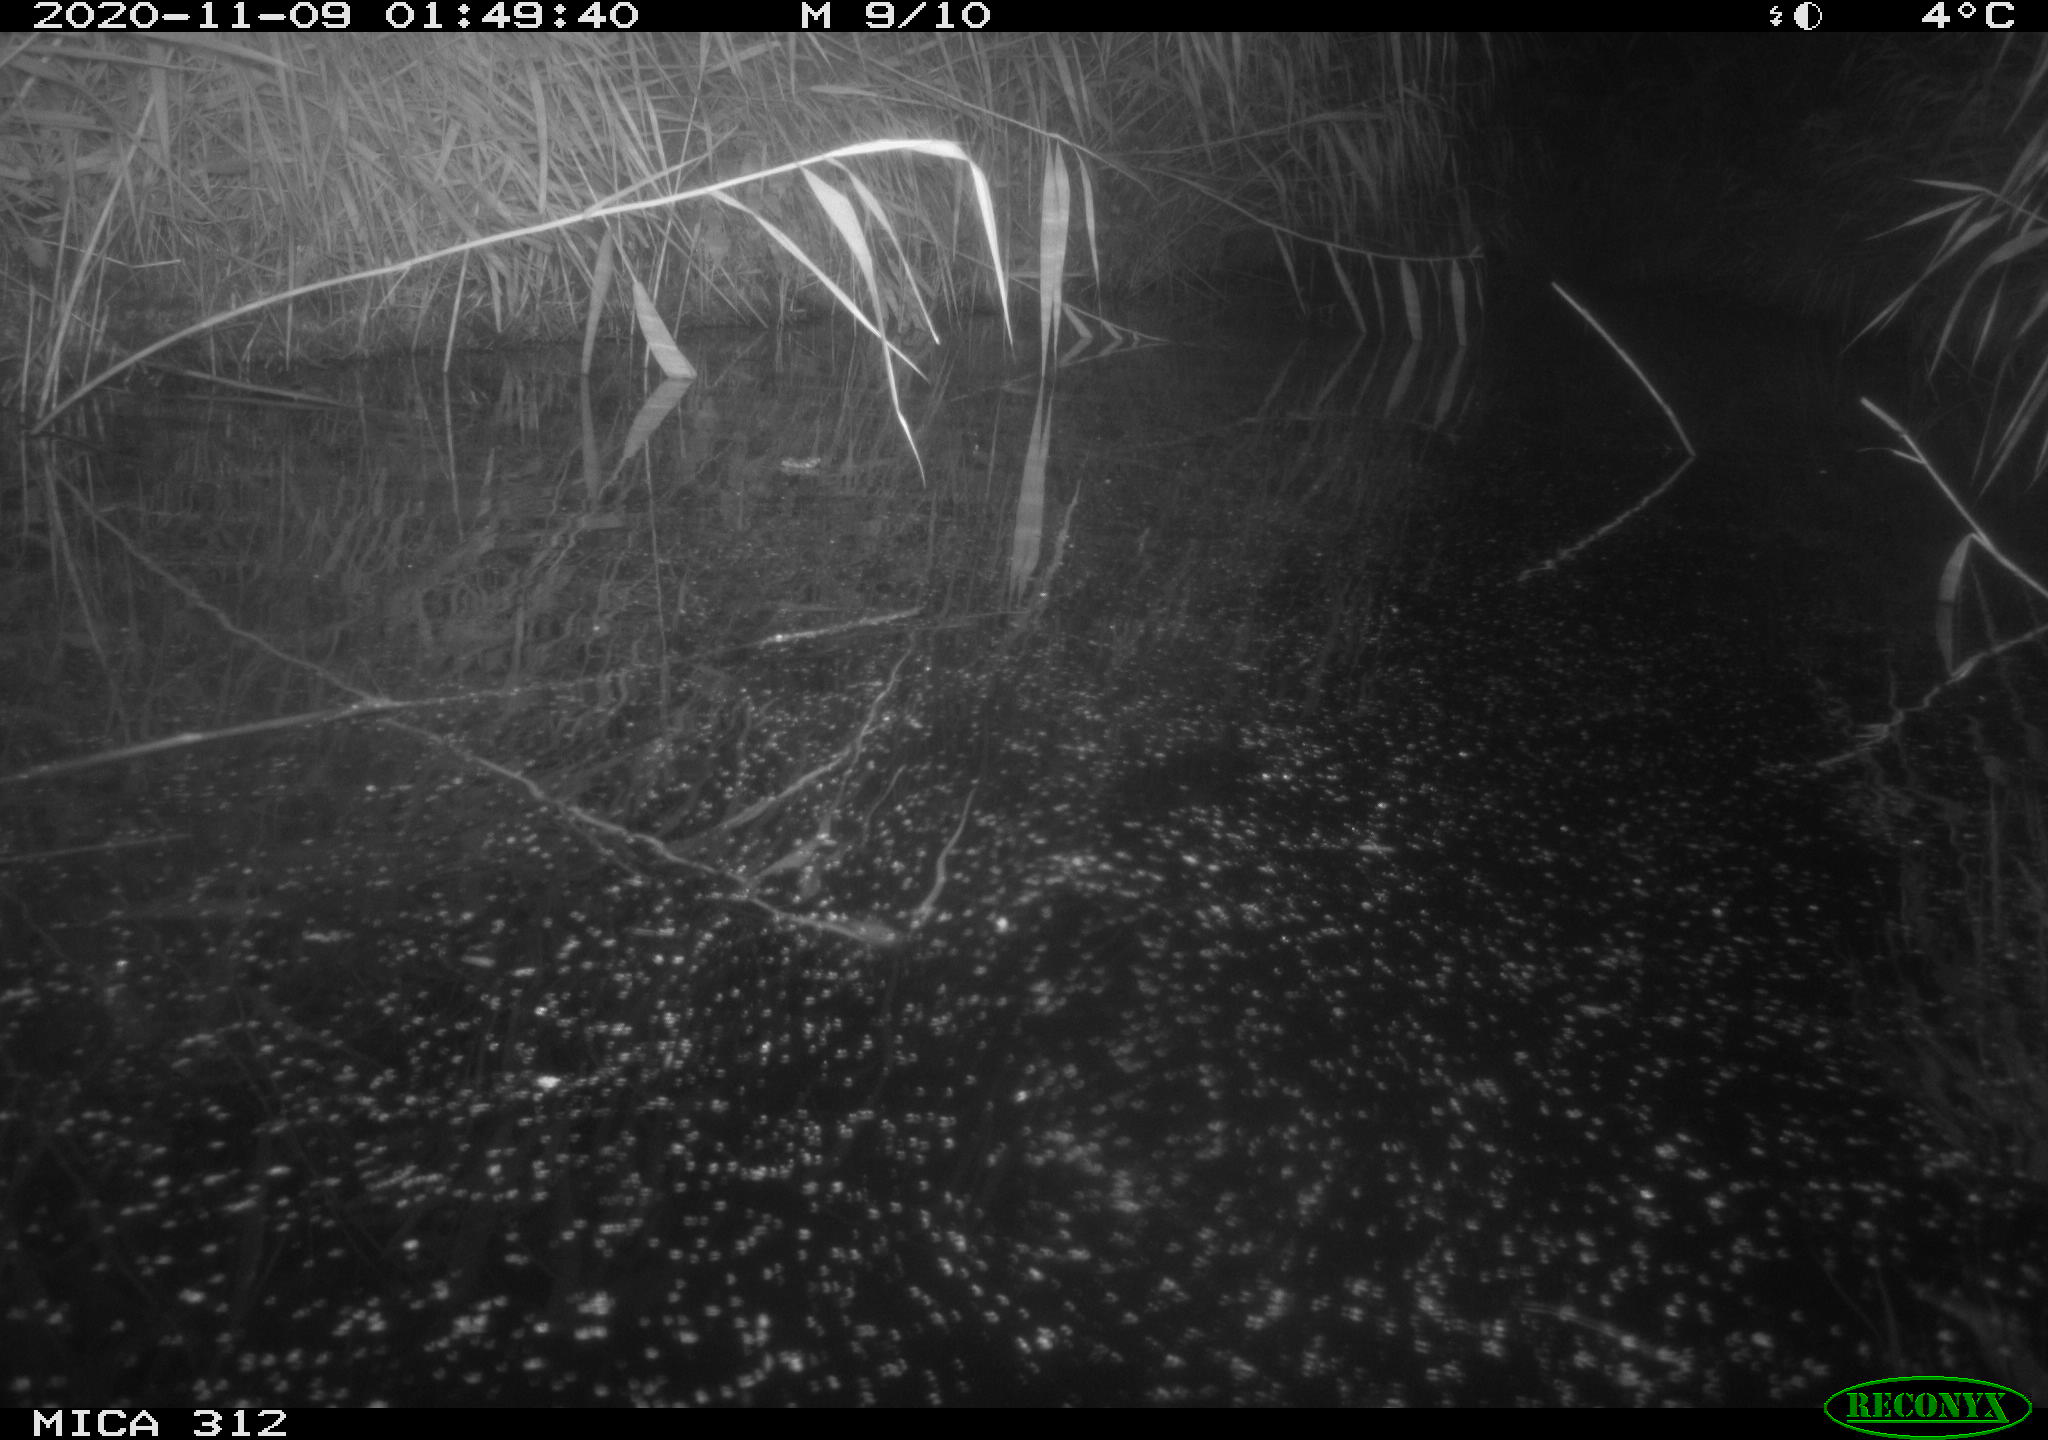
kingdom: Animalia
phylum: Chordata
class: Mammalia
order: Rodentia
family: Muridae
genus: Rattus
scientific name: Rattus norvegicus
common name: Brown rat
